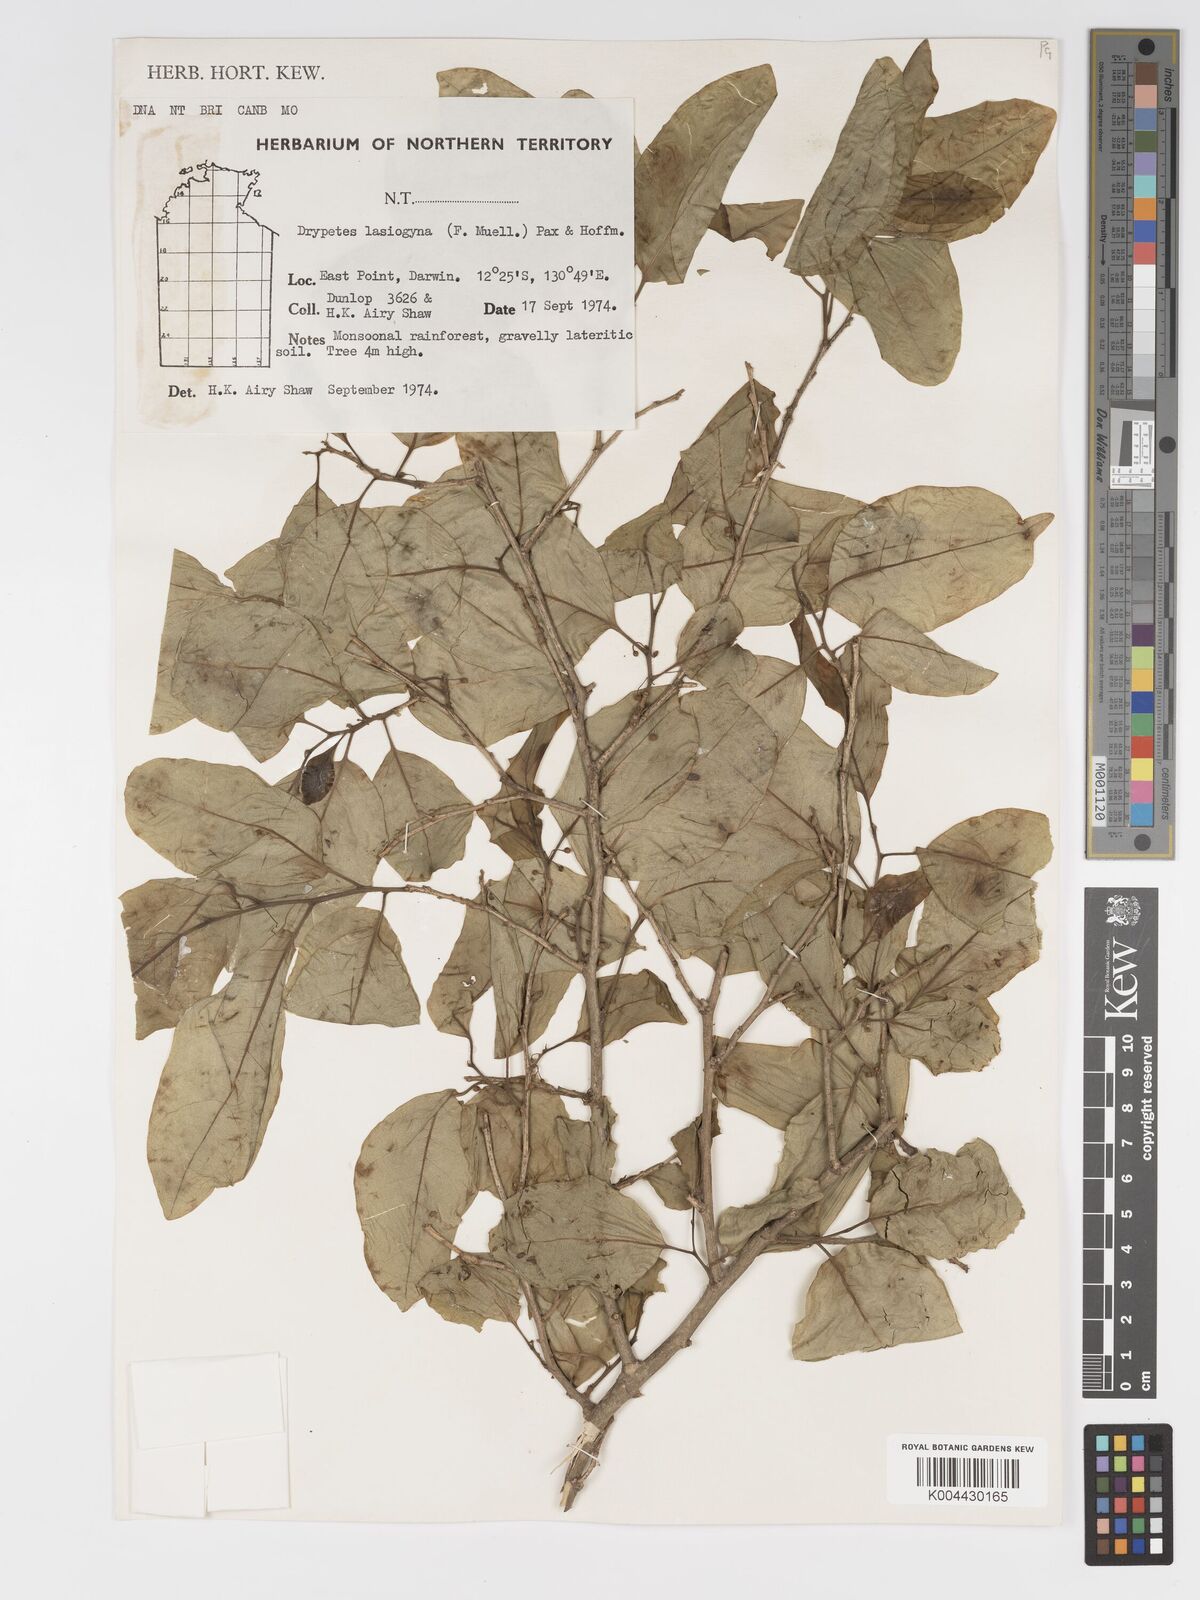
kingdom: Plantae
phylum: Tracheophyta
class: Magnoliopsida
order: Malpighiales
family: Putranjivaceae
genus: Drypetes
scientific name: Drypetes deplanchei
